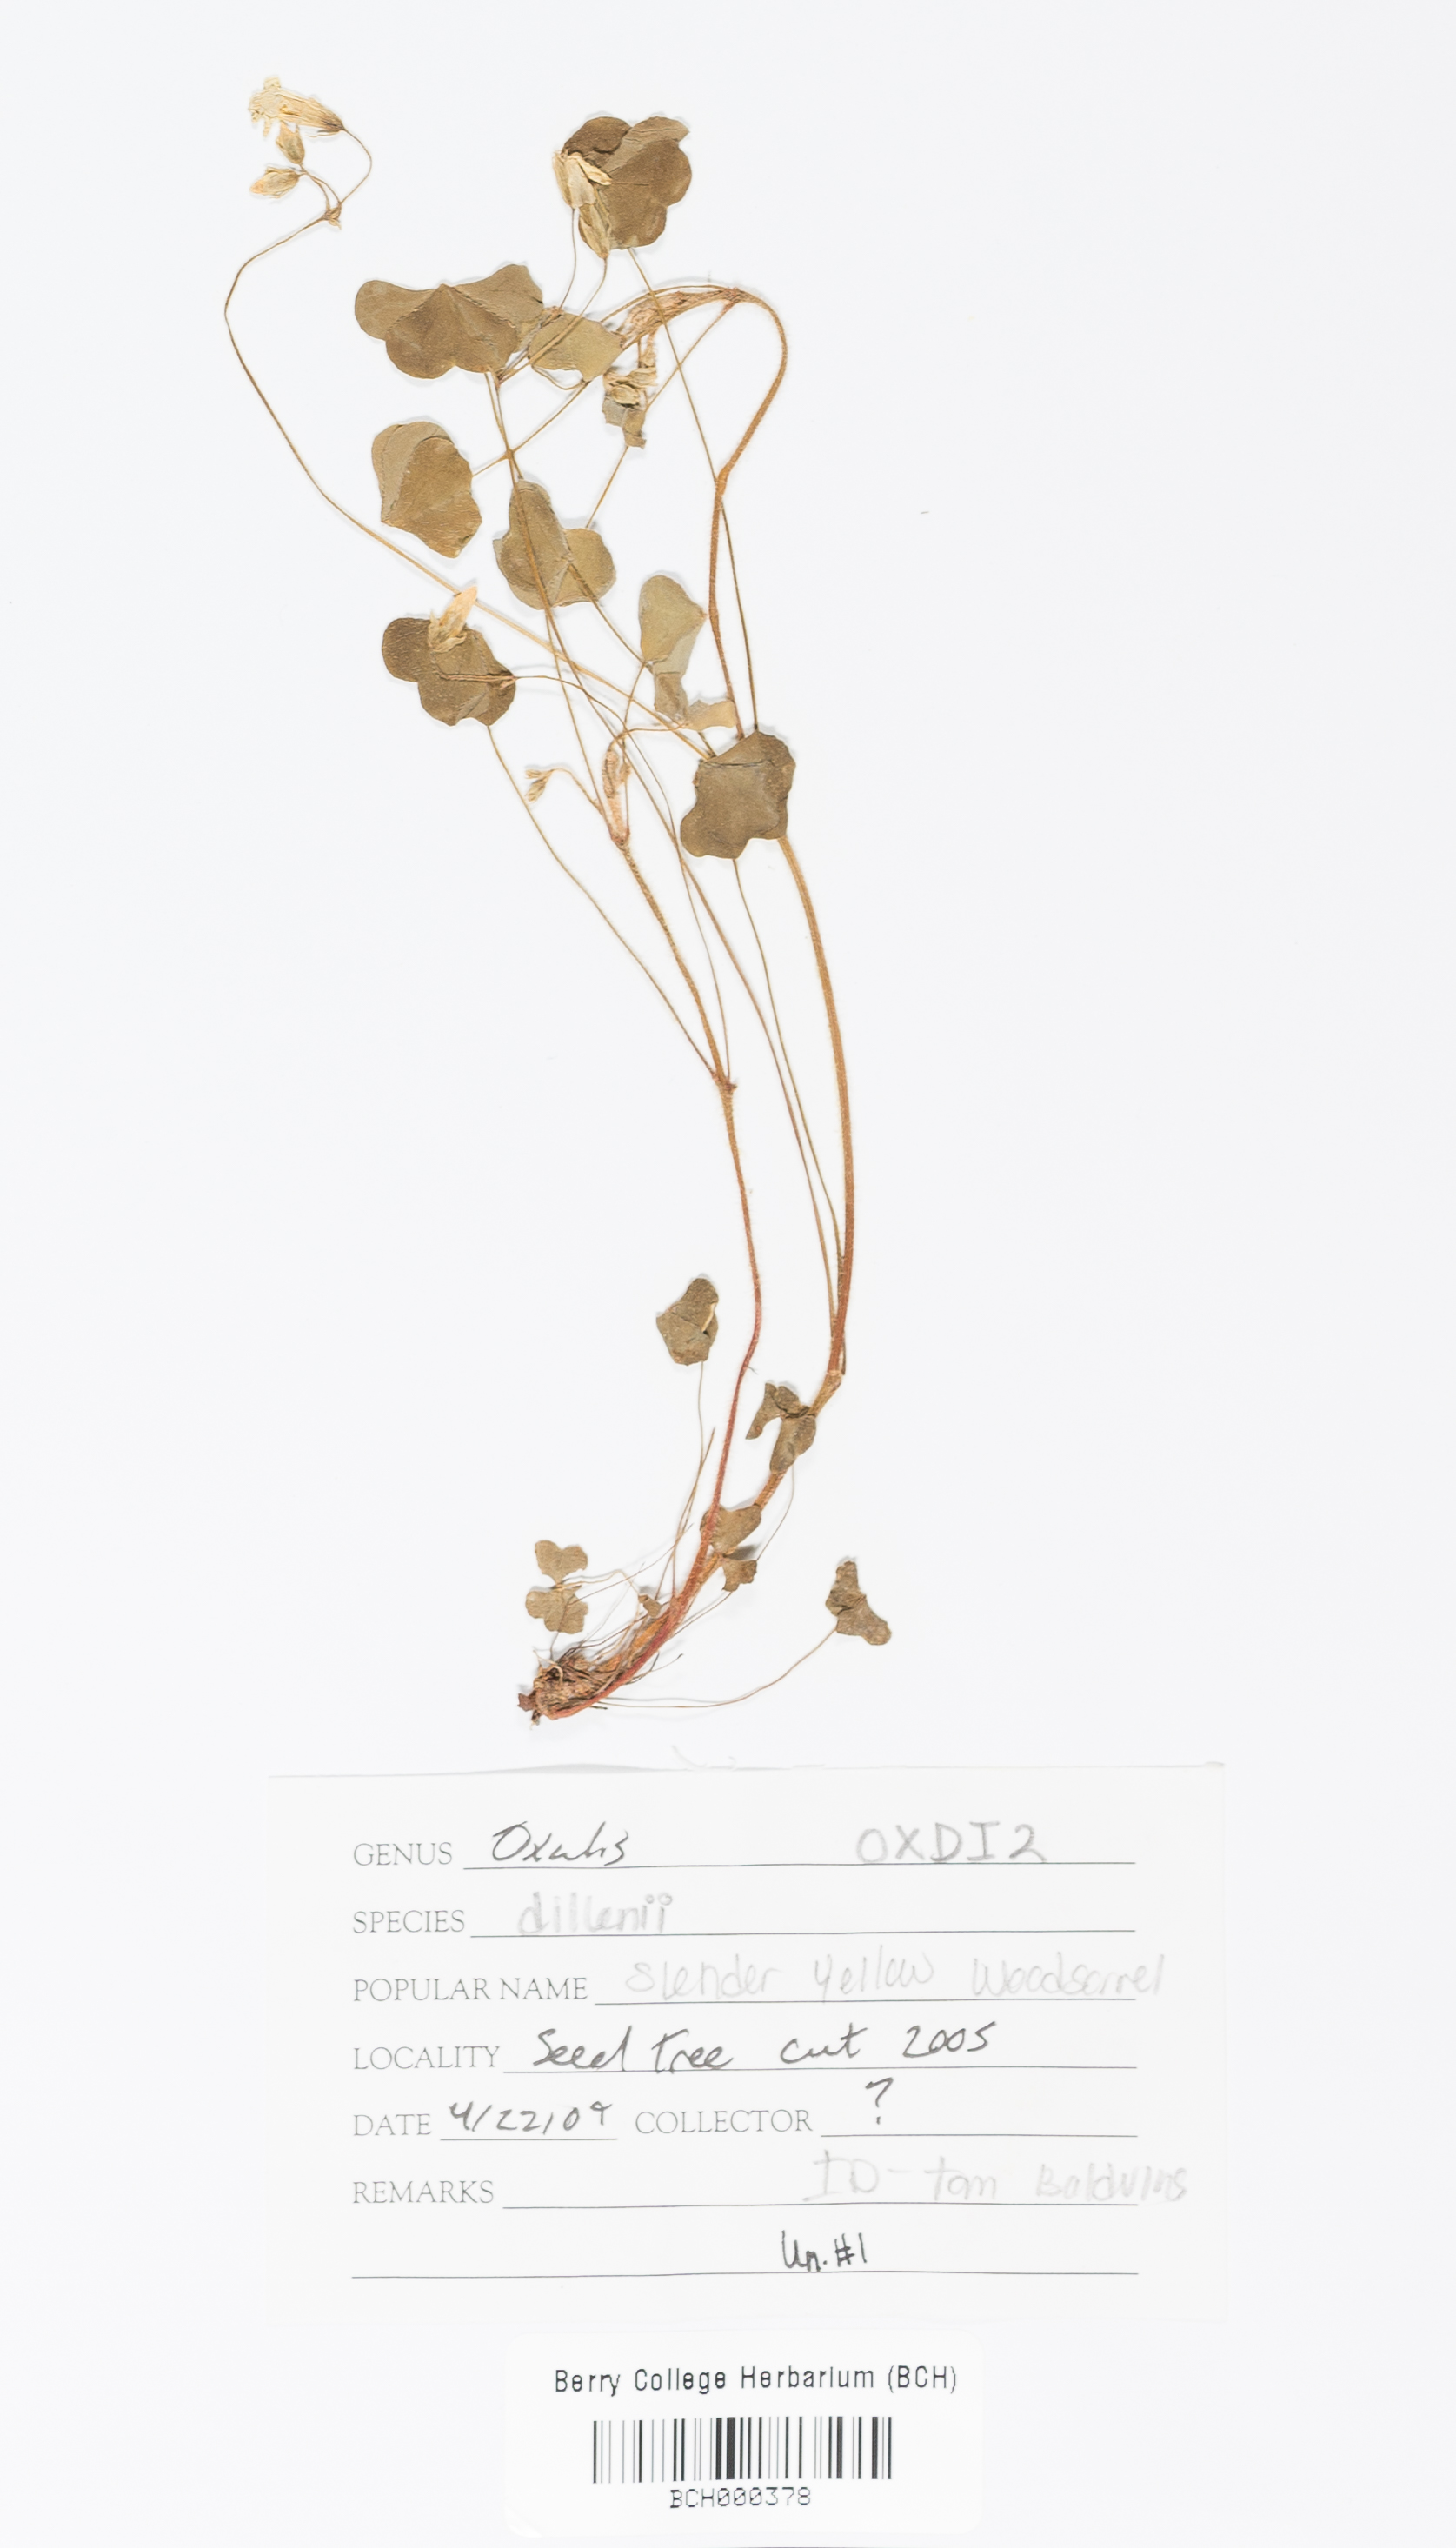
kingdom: Plantae
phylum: Tracheophyta
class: Magnoliopsida
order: Oxalidales
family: Oxalidaceae
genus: Oxalis
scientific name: Oxalis dillenii
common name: Sussex yellow-sorrel
